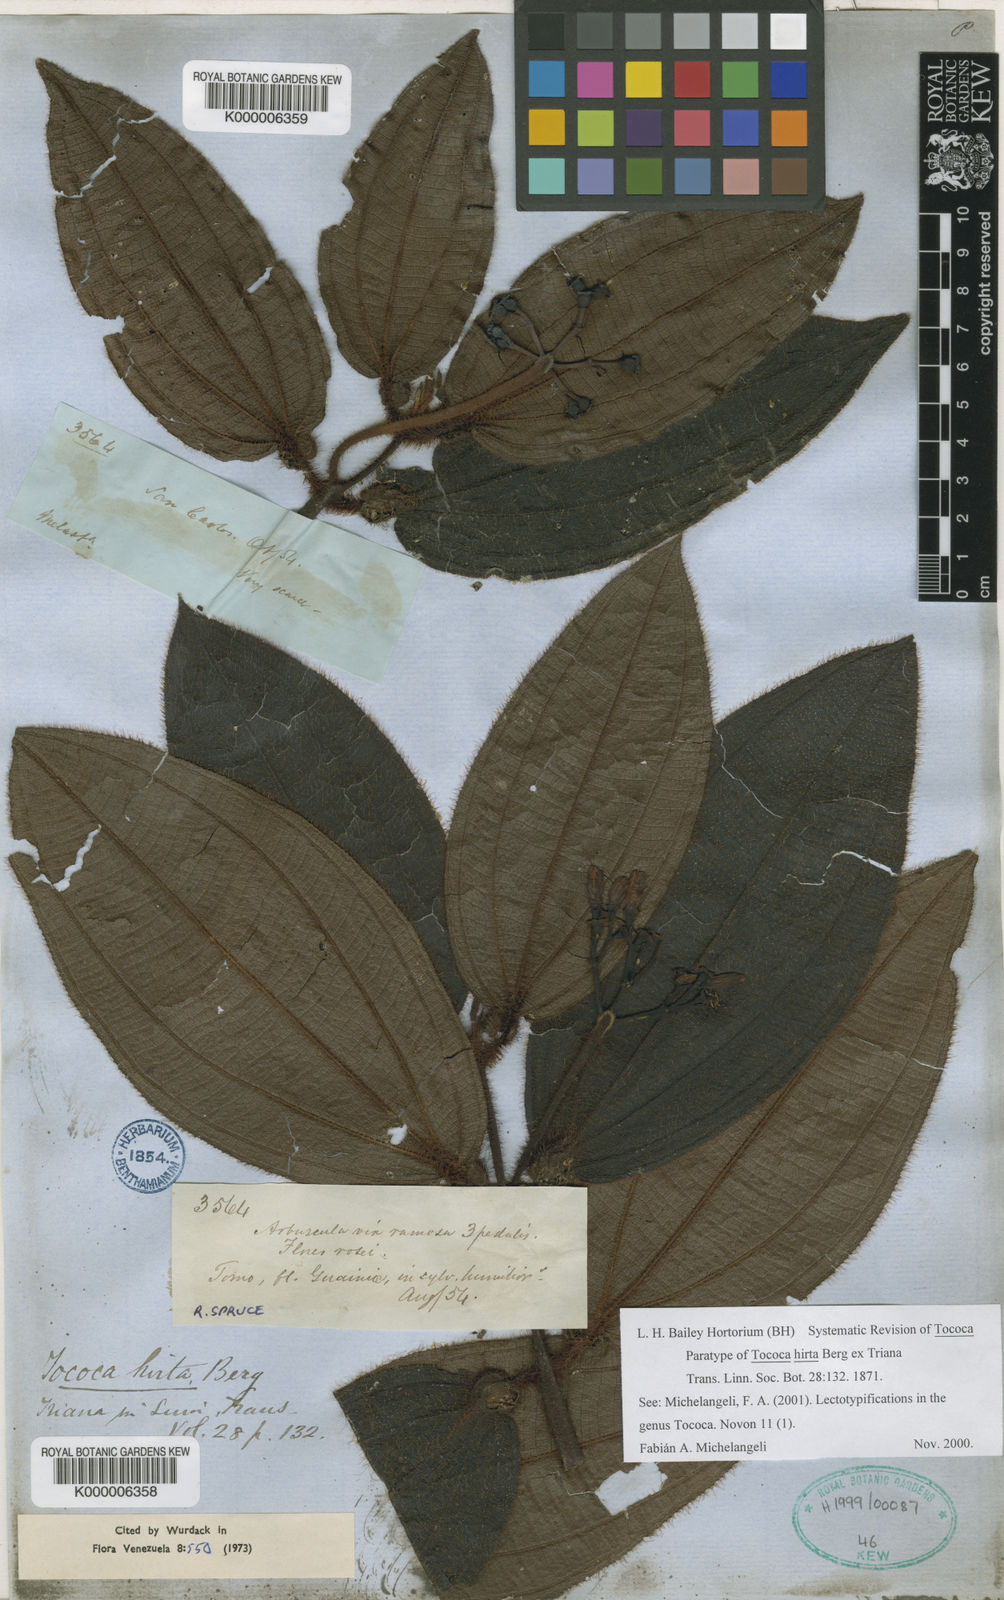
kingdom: Plantae
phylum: Tracheophyta
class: Magnoliopsida
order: Myrtales
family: Melastomataceae
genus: Miconia
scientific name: Miconia tocohirta
